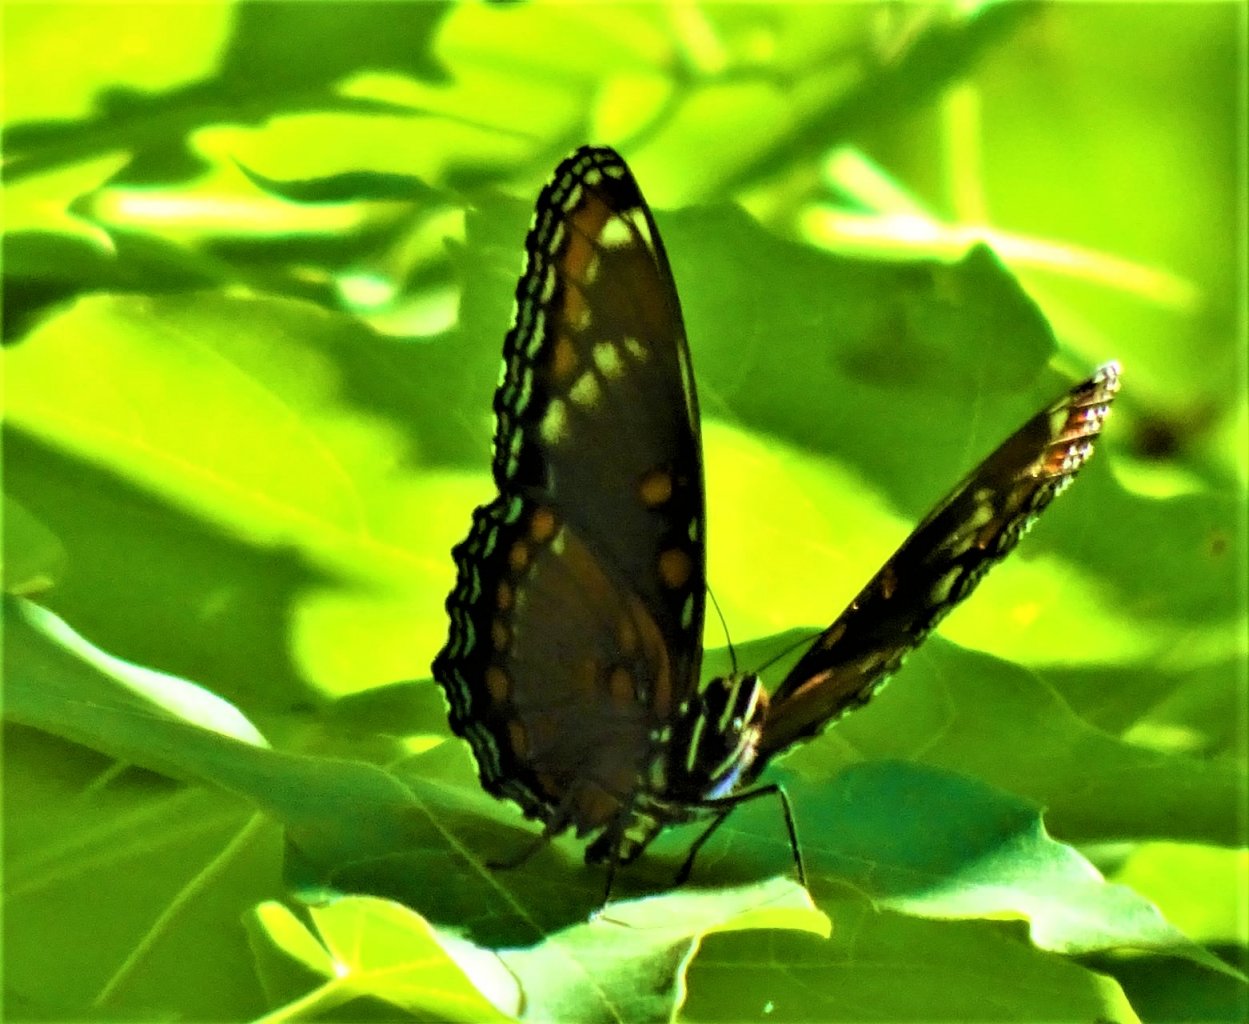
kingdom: Animalia
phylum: Arthropoda
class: Insecta
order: Lepidoptera
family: Nymphalidae
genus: Limenitis
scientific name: Limenitis
